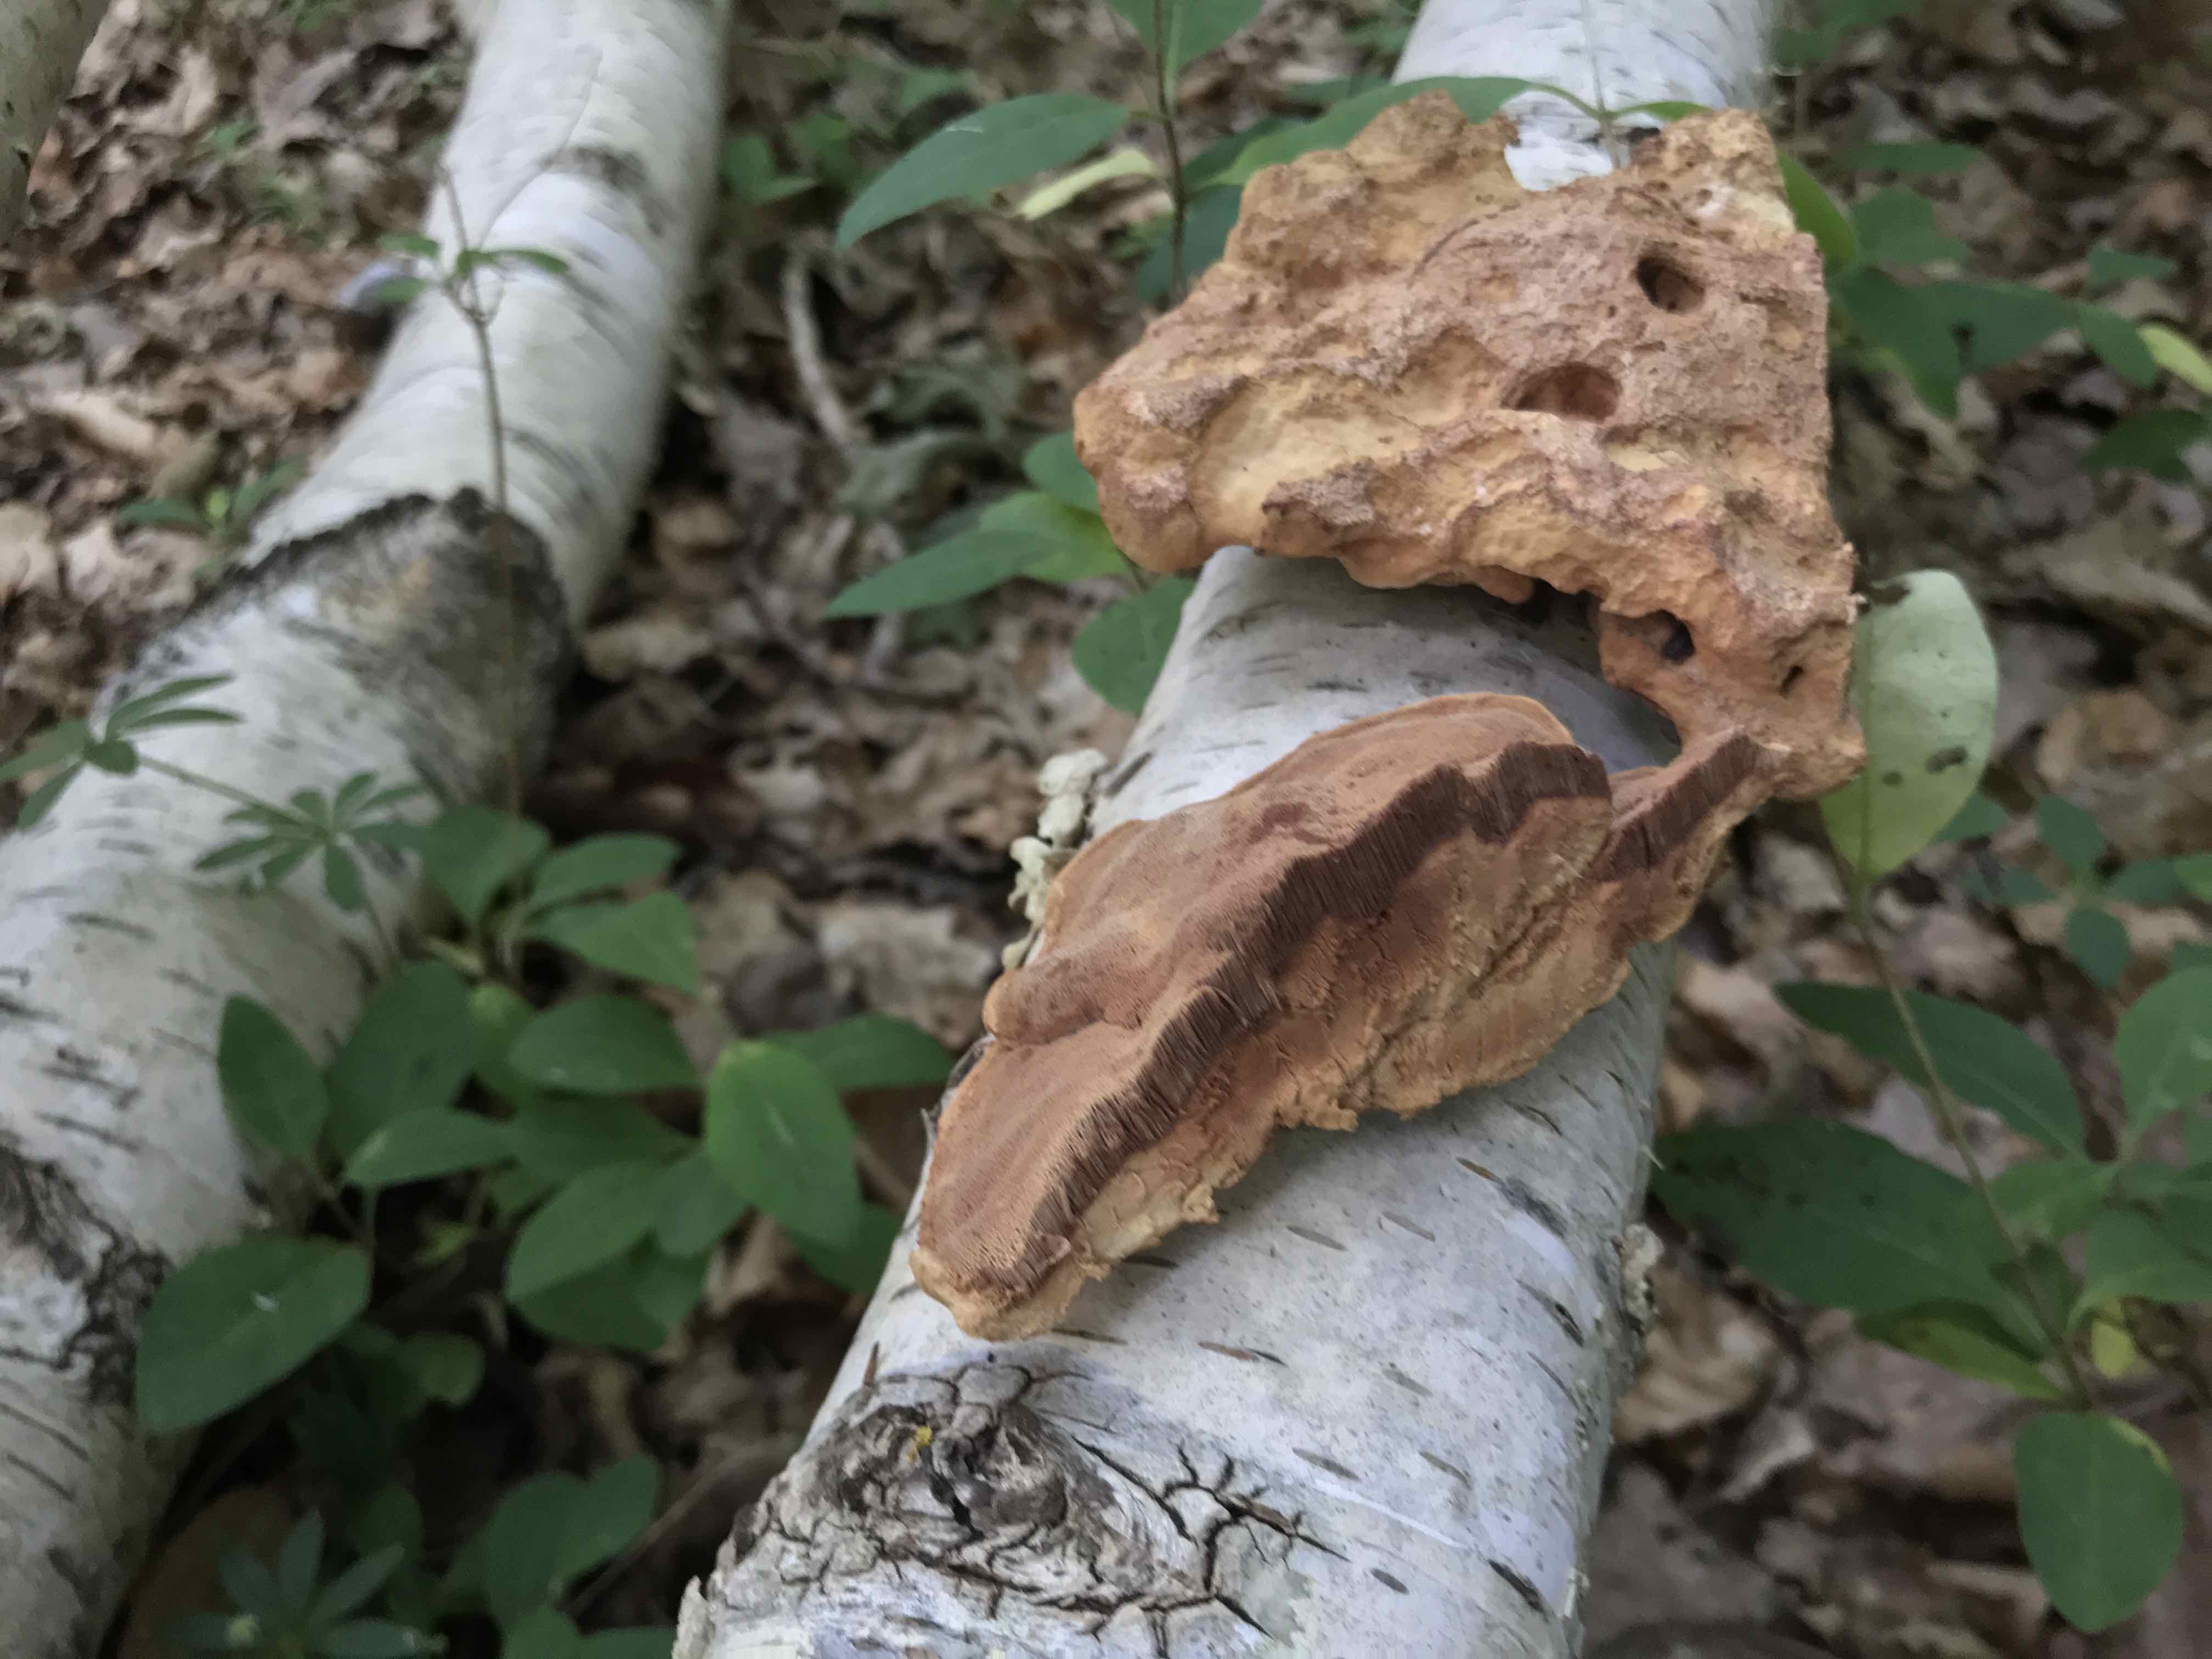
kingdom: Fungi
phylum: Basidiomycota
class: Agaricomycetes
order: Polyporales
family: Phanerochaetaceae
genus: Hapalopilus
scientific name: Hapalopilus rutilans
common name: rødlig okkerporesvamp
